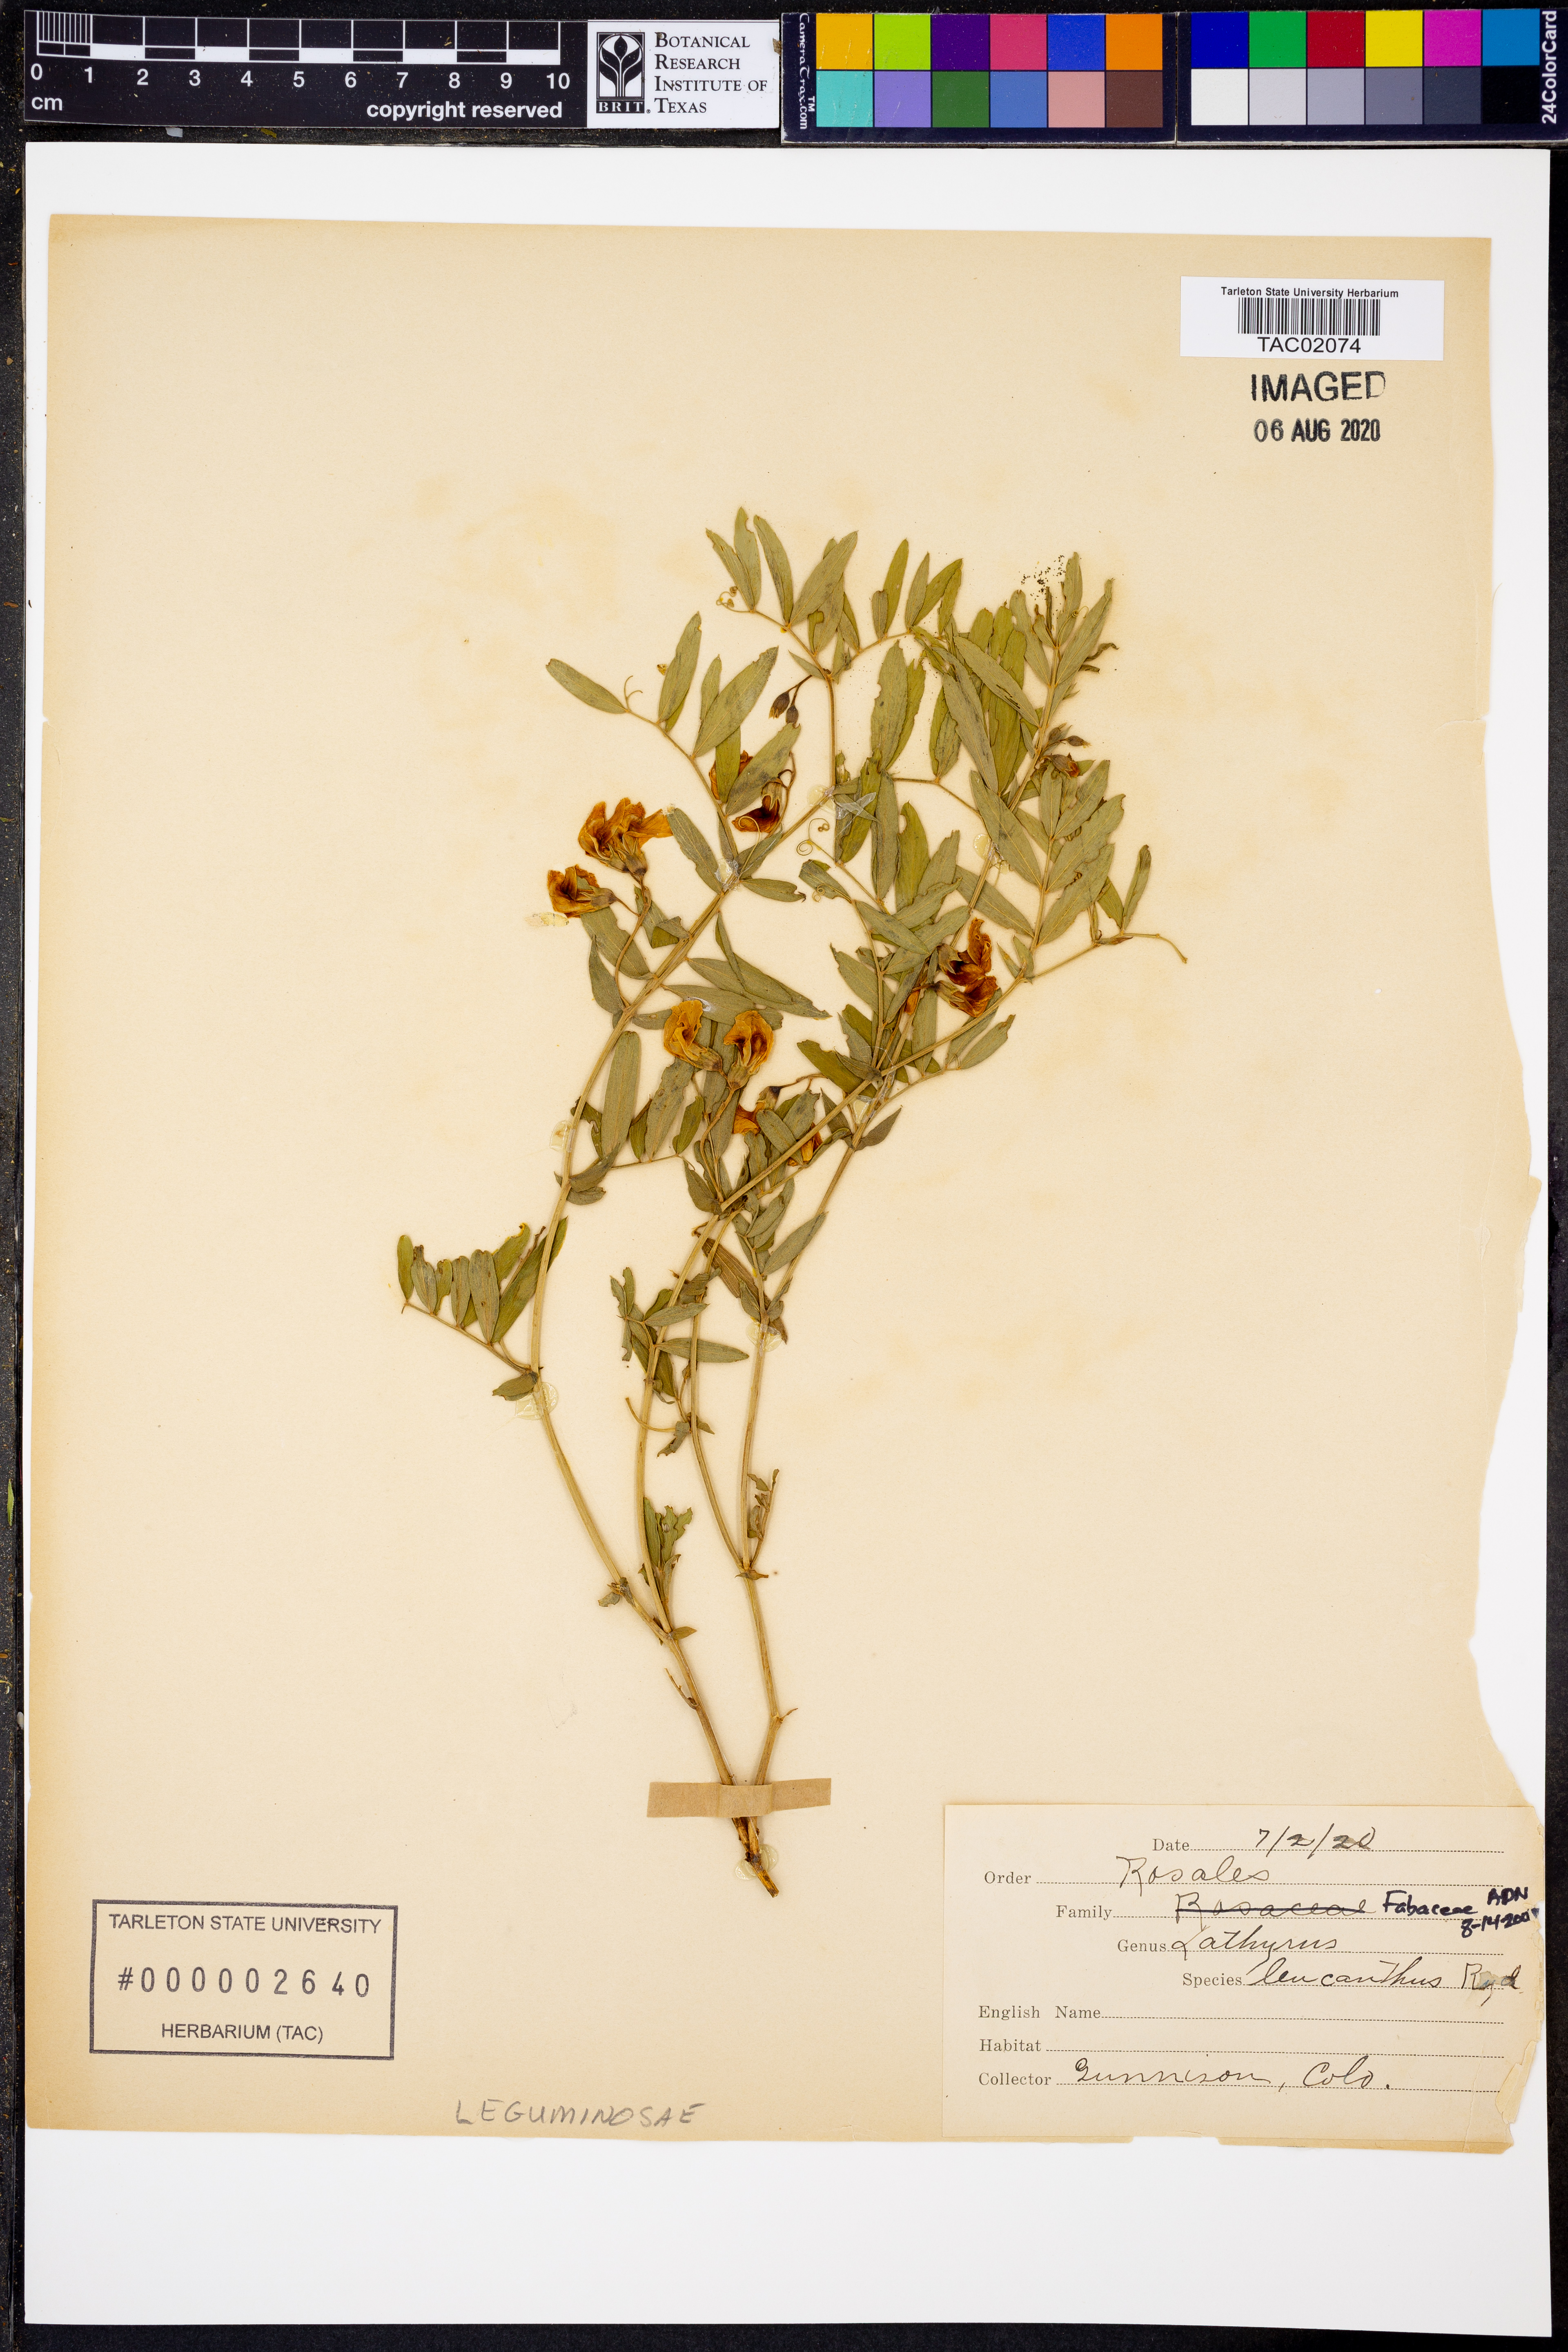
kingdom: Plantae
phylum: Tracheophyta
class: Magnoliopsida
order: Fabales
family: Fabaceae
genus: Lathyrus
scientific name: Lathyrus lanszwertii
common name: Lanszwert's vetchling
